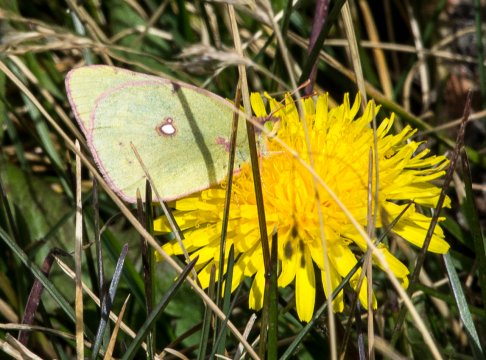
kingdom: Animalia
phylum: Arthropoda
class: Insecta
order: Lepidoptera
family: Pieridae
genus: Colias
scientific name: Colias philodice
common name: Clouded Sulphur
